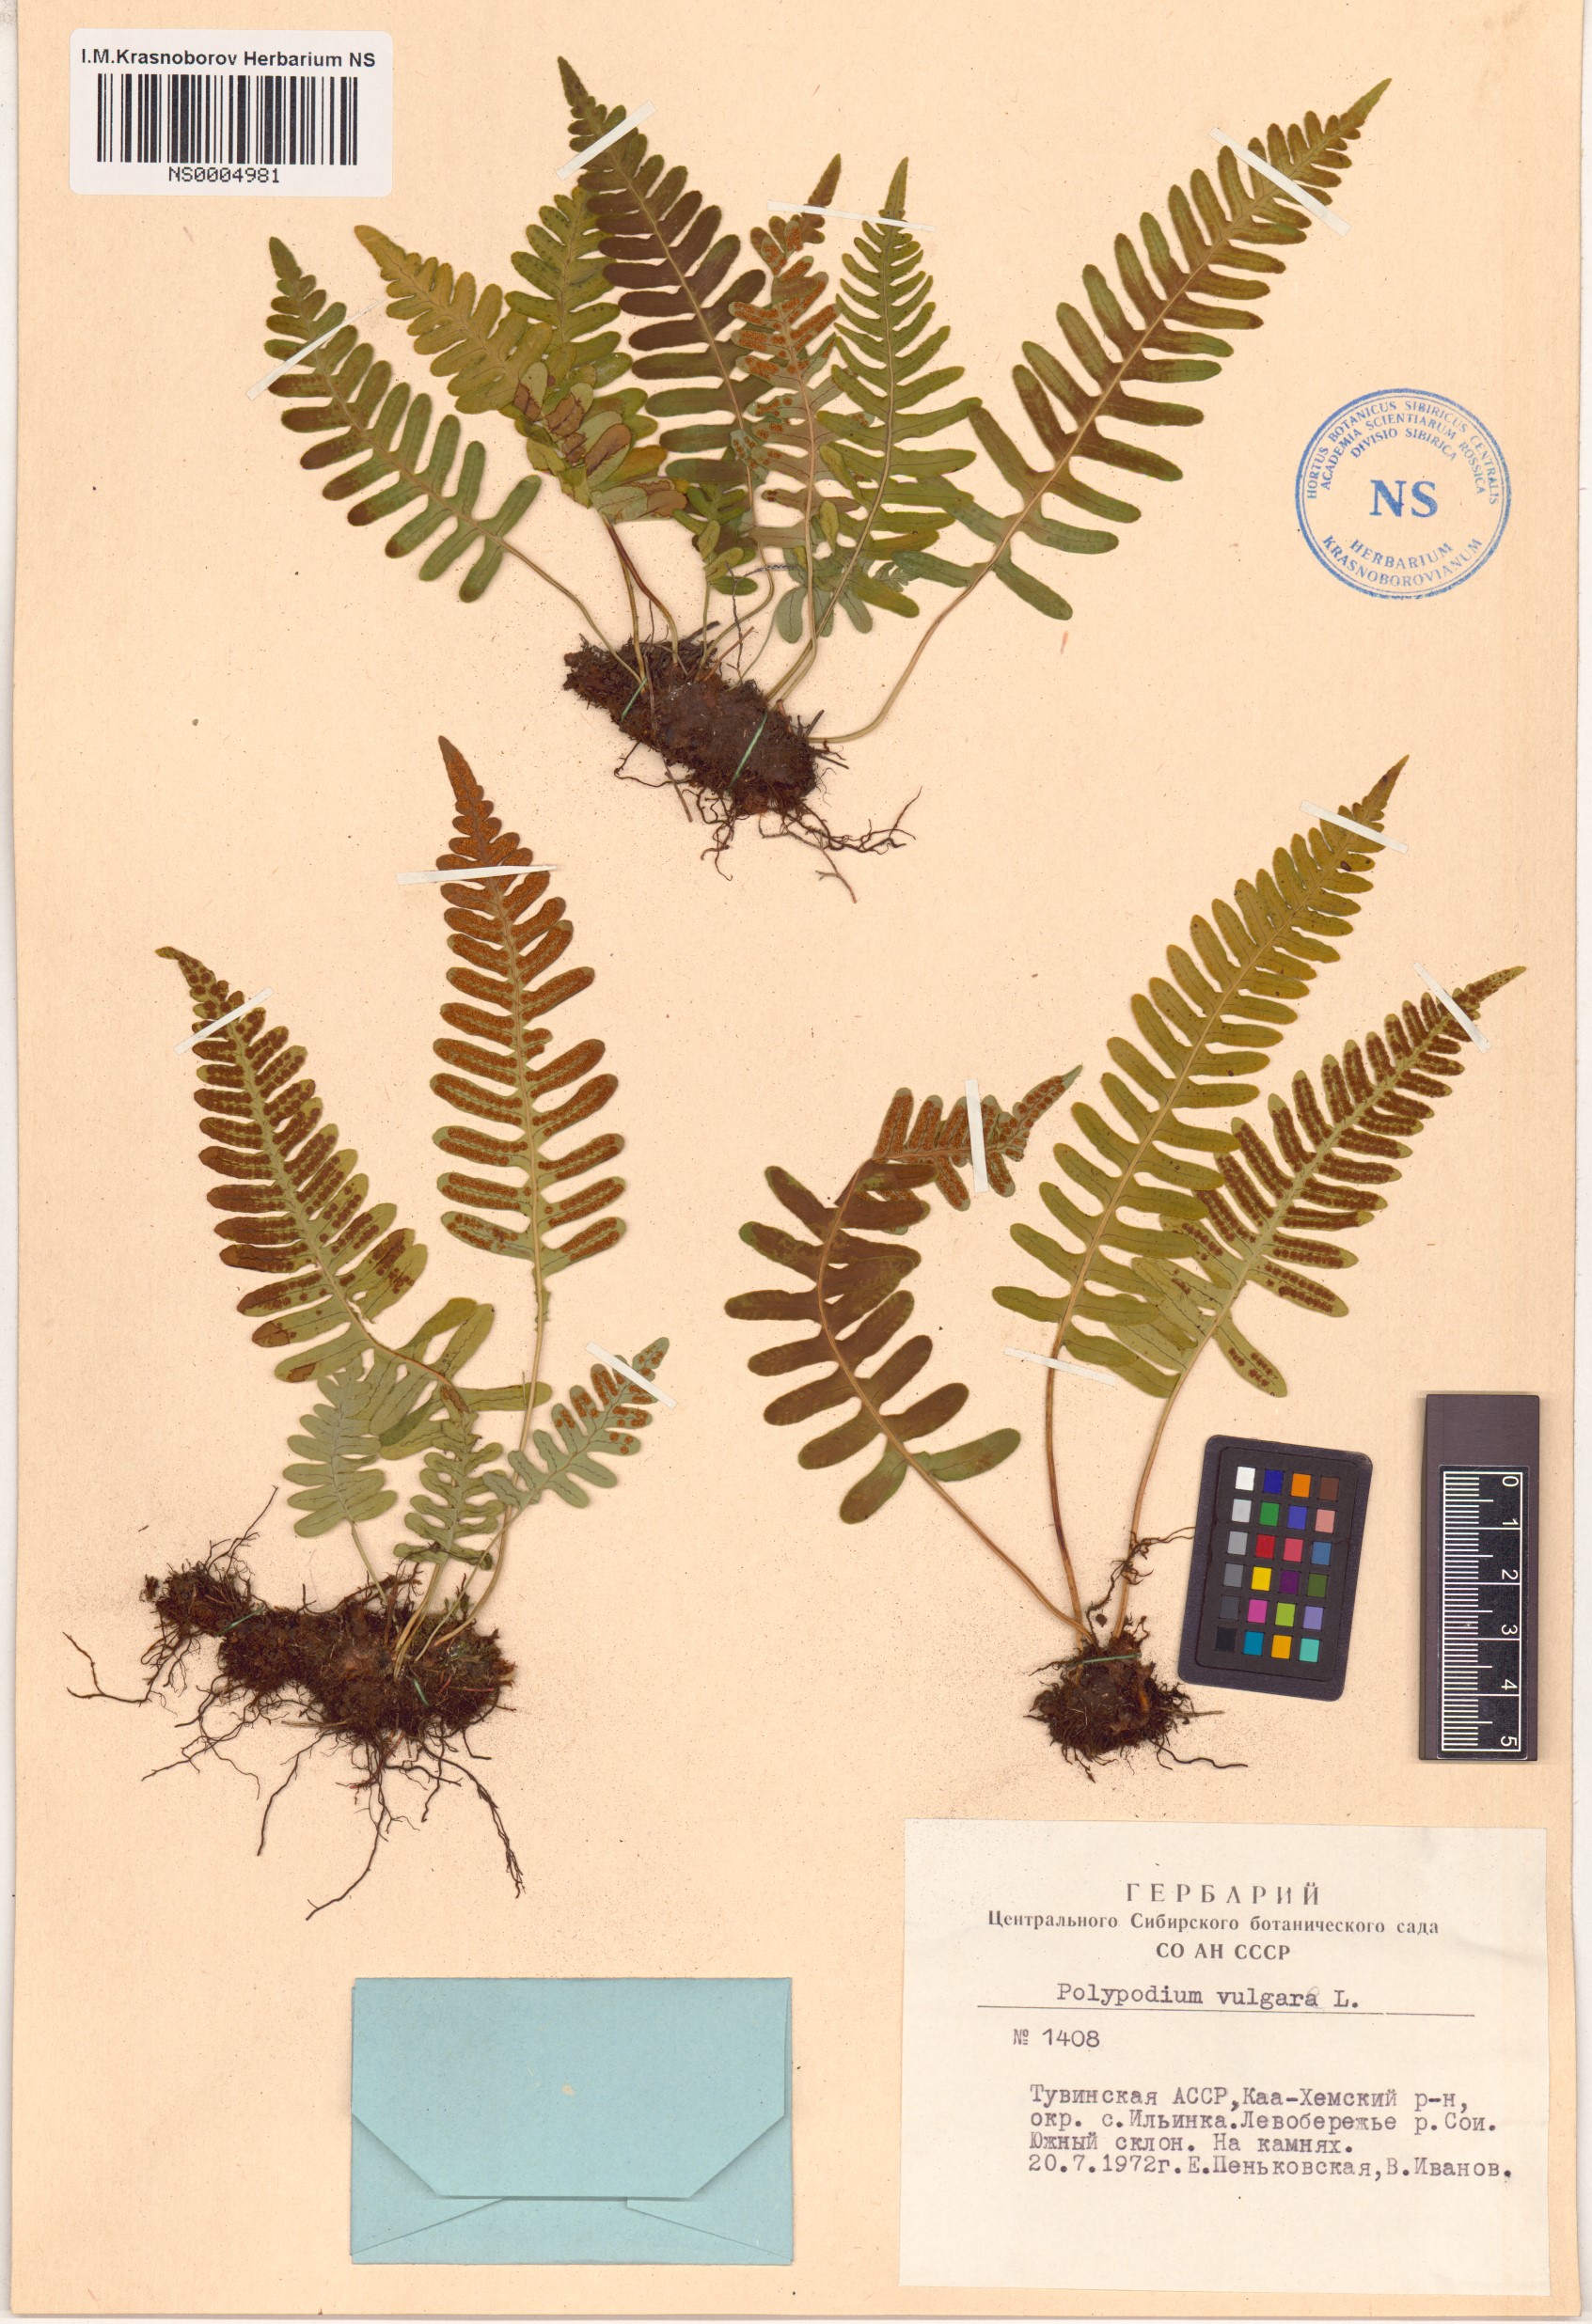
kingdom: Plantae
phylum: Tracheophyta
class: Polypodiopsida
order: Polypodiales
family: Polypodiaceae
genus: Polypodium
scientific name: Polypodium vulgare
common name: Common polypody
